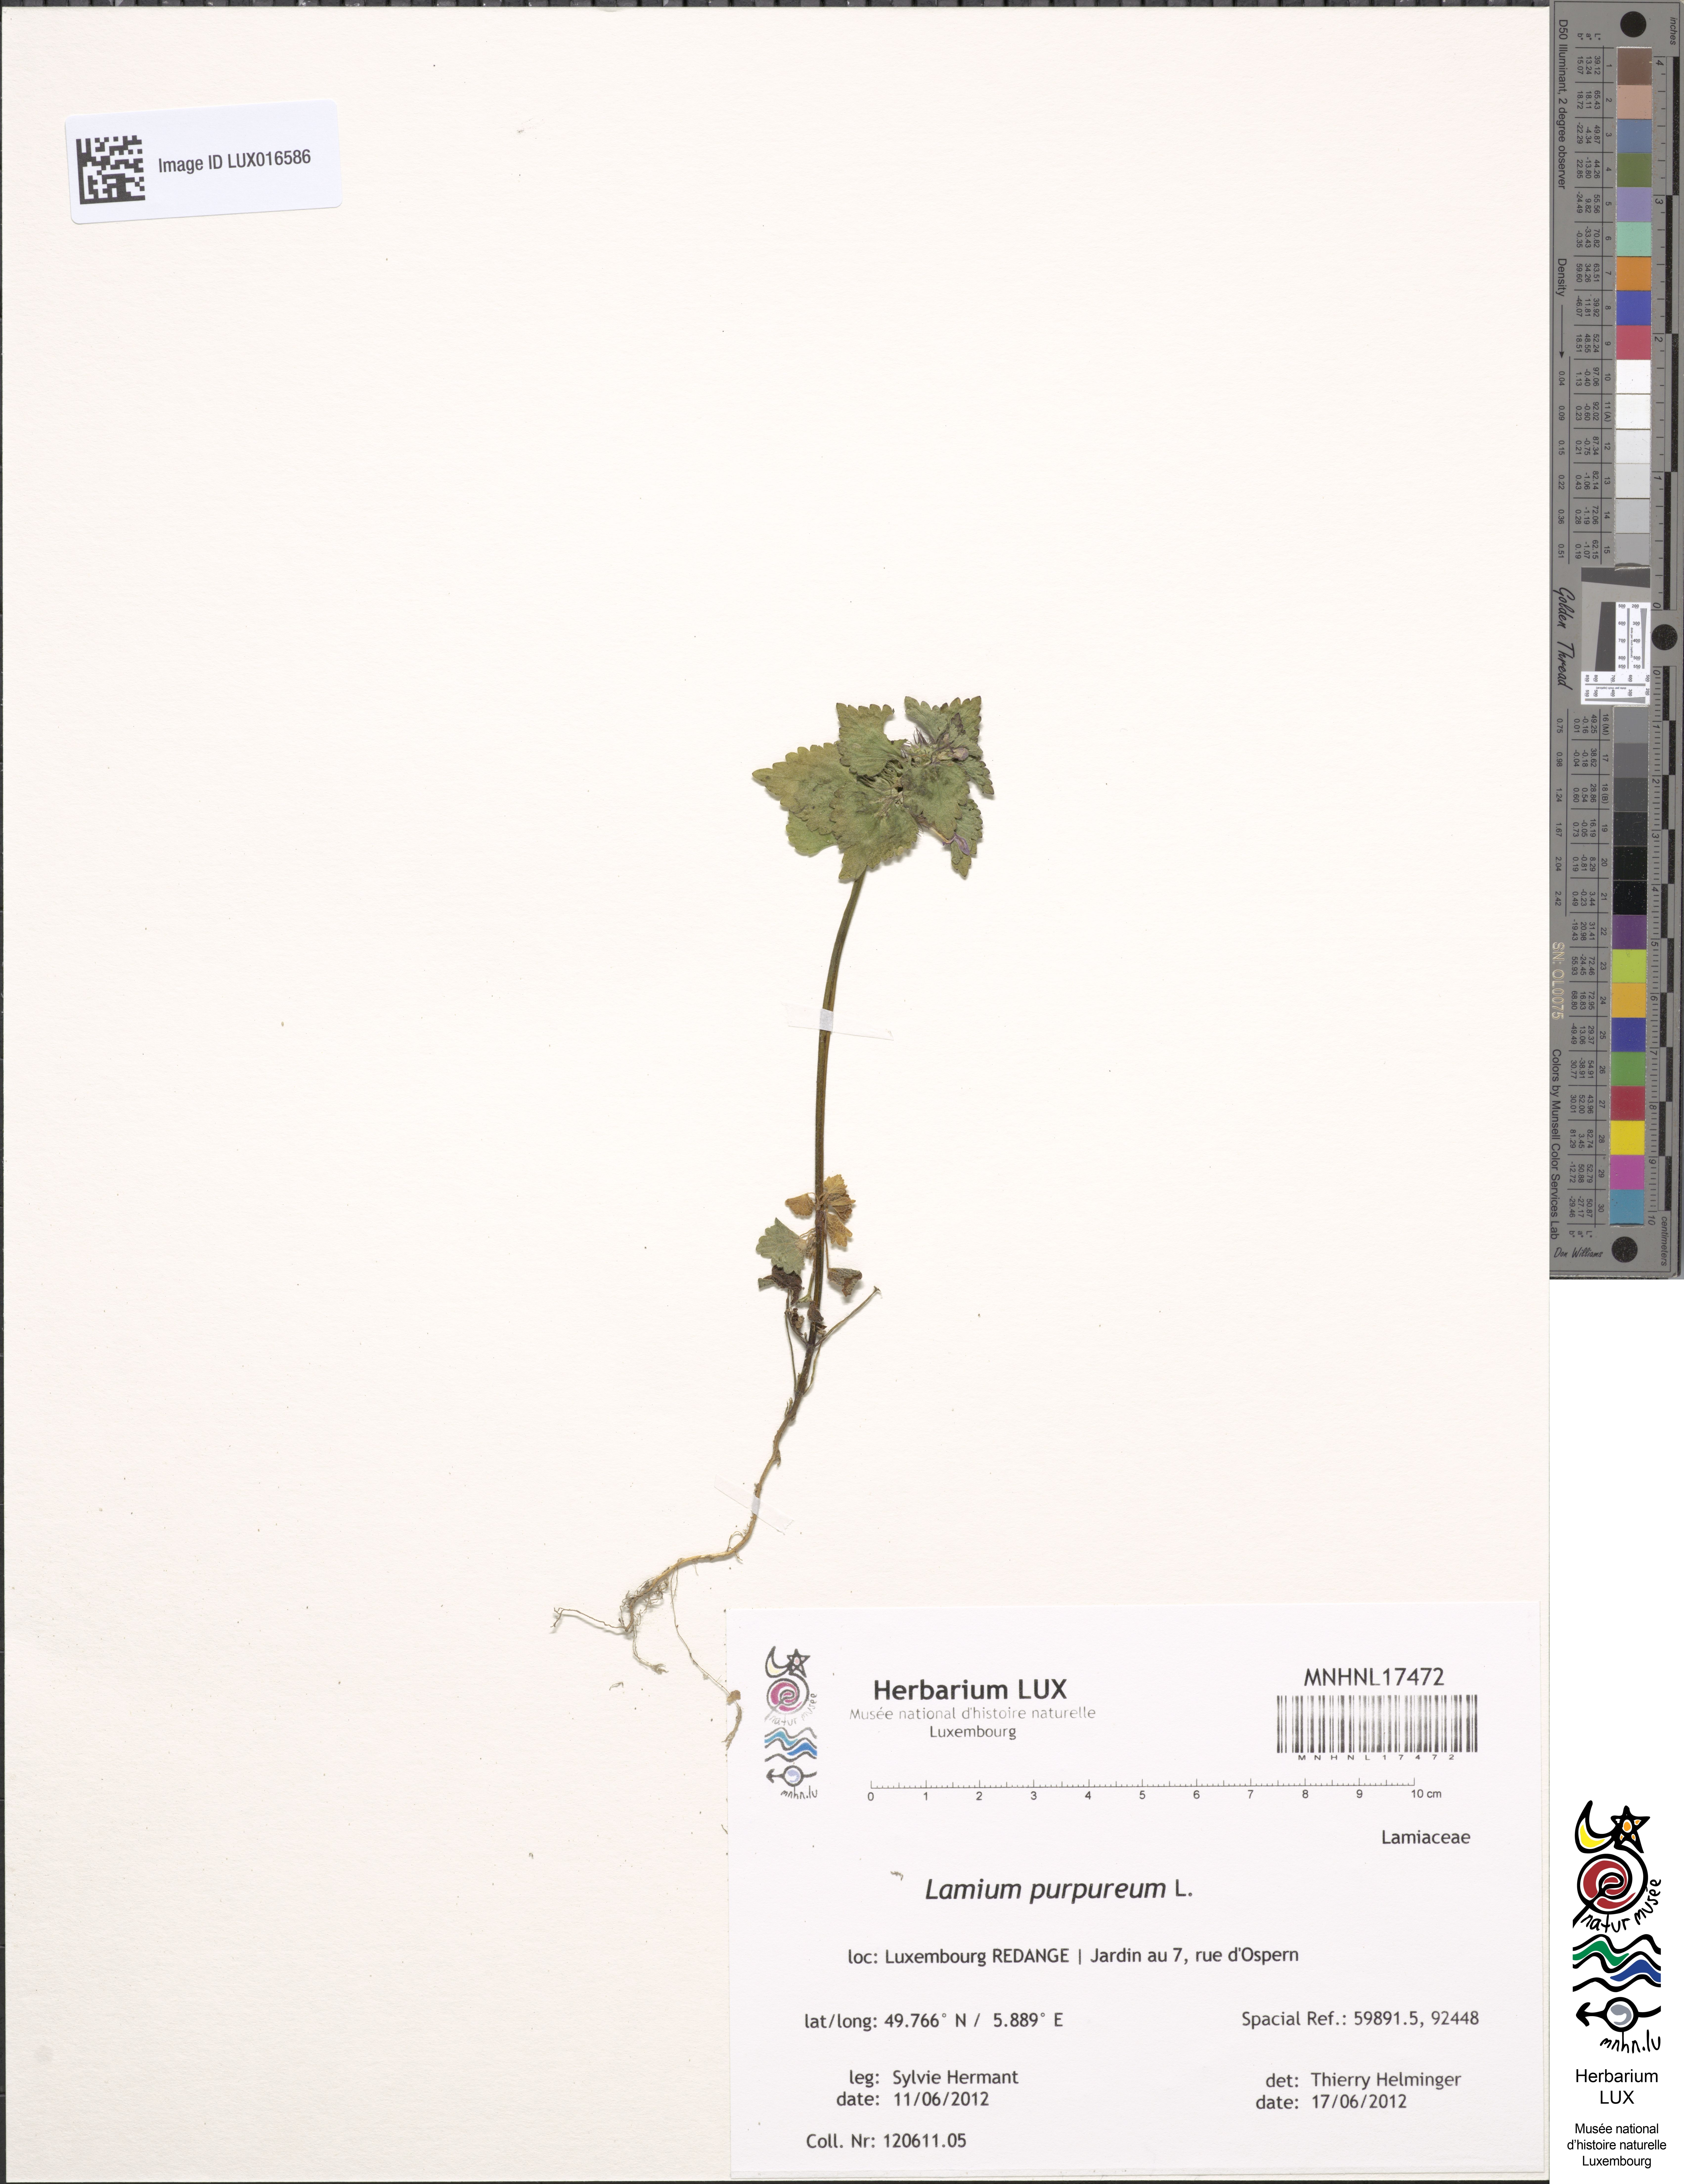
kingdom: Plantae
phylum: Tracheophyta
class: Magnoliopsida
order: Lamiales
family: Lamiaceae
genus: Lamium
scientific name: Lamium purpureum
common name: Red dead-nettle
